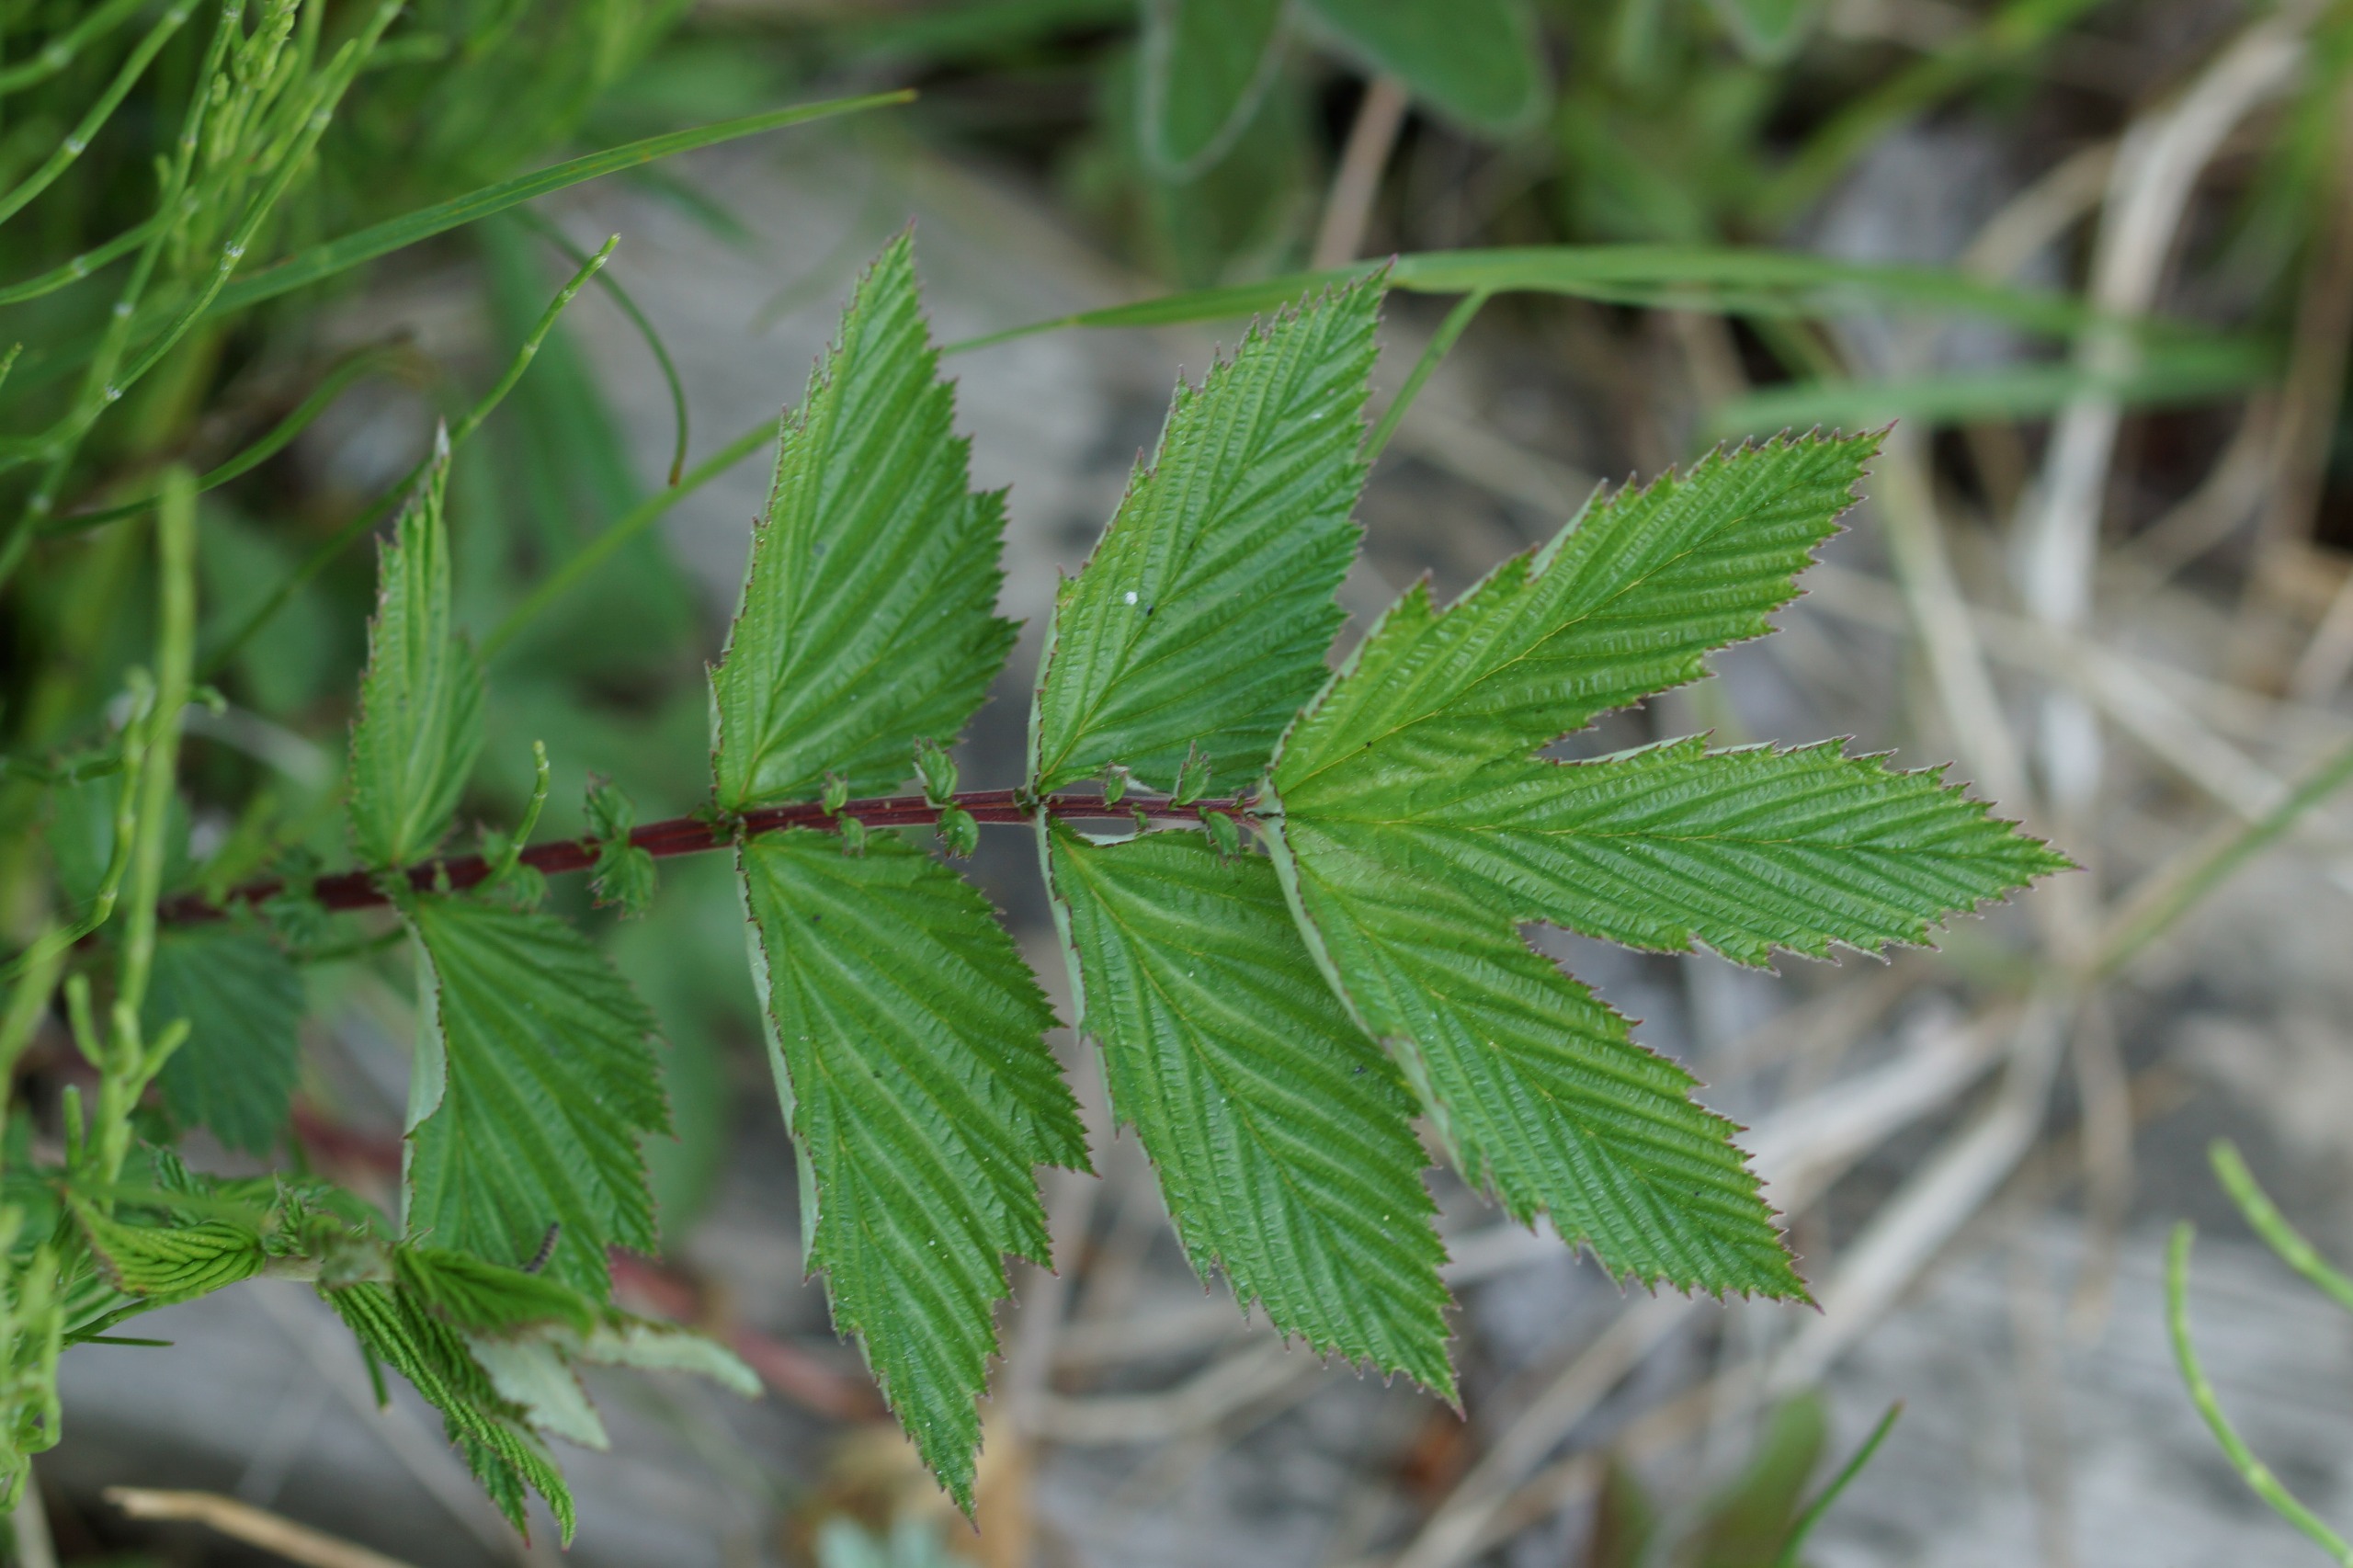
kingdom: Plantae
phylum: Tracheophyta
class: Magnoliopsida
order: Rosales
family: Rosaceae
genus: Filipendula
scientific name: Filipendula ulmaria
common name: Almindelig mjødurt
